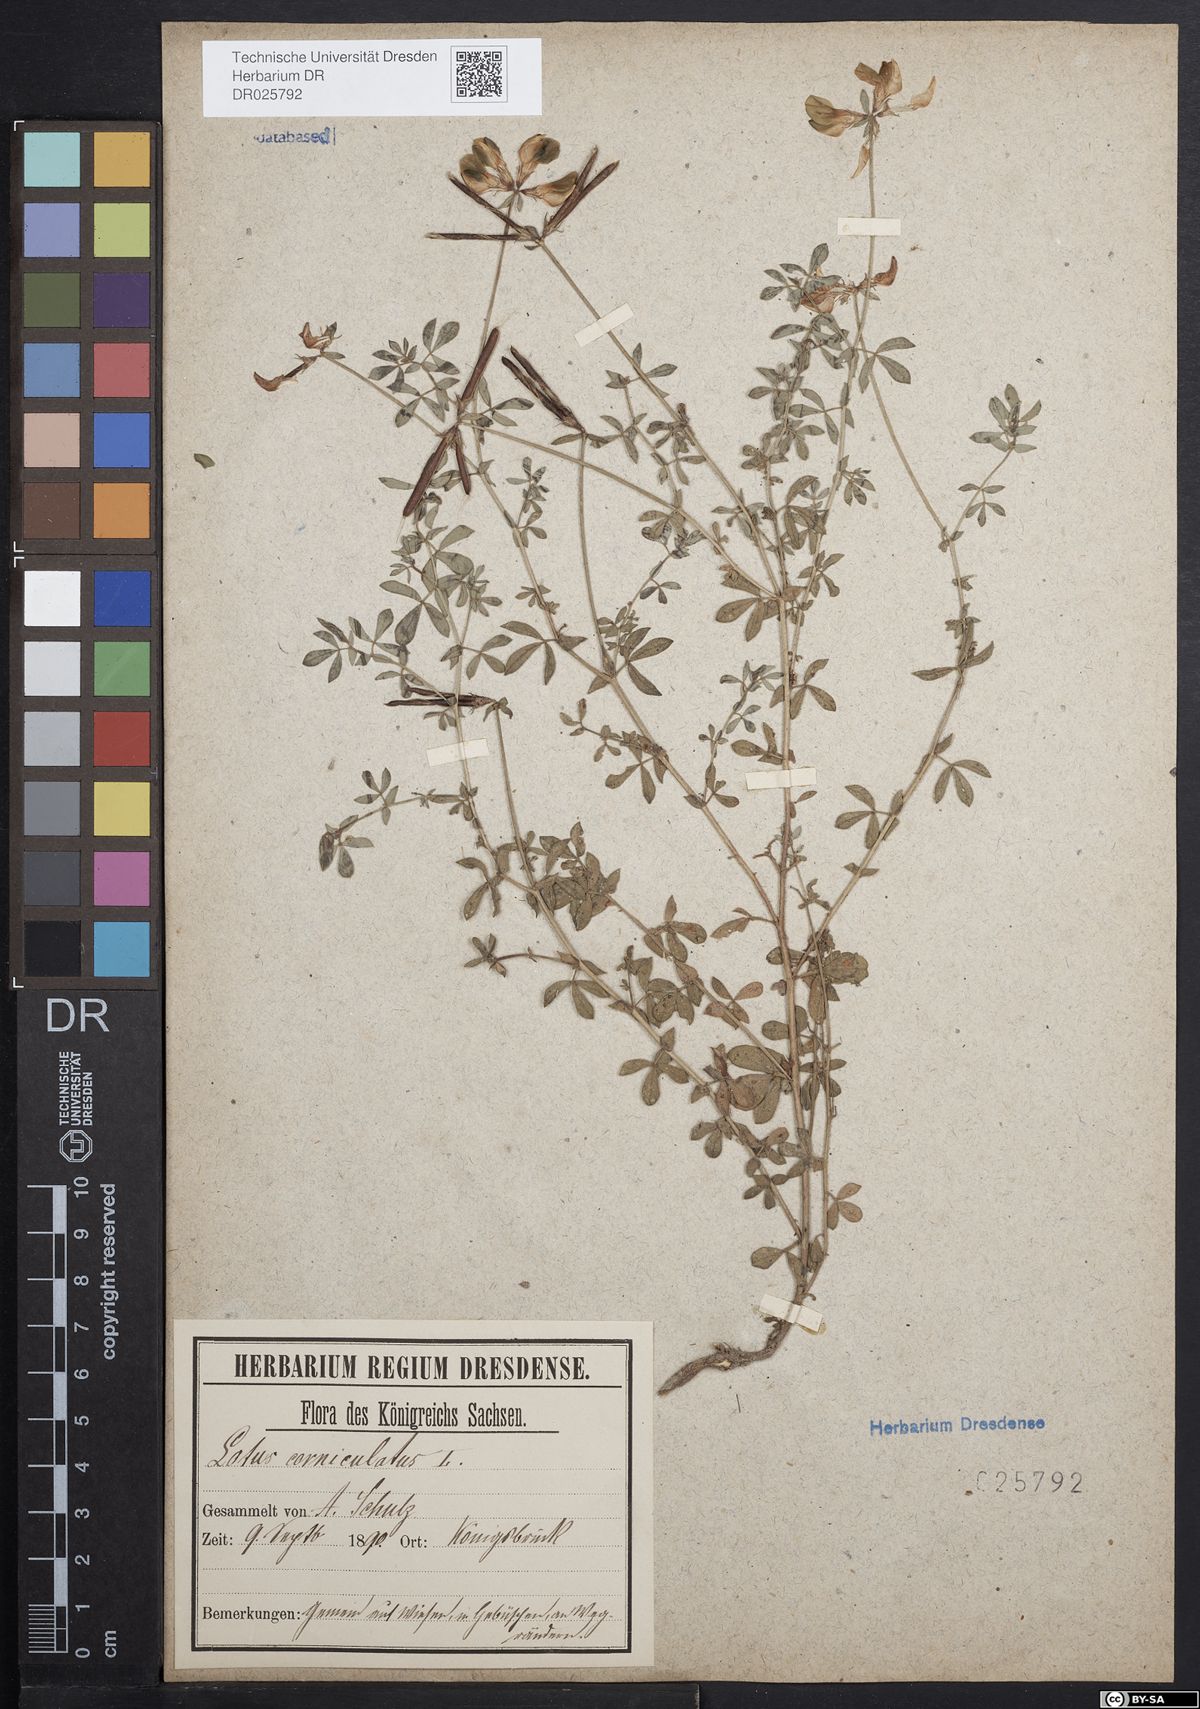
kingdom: Plantae
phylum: Tracheophyta
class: Magnoliopsida
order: Fabales
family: Fabaceae
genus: Lotus
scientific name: Lotus corniculatus
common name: Common bird's-foot-trefoil
